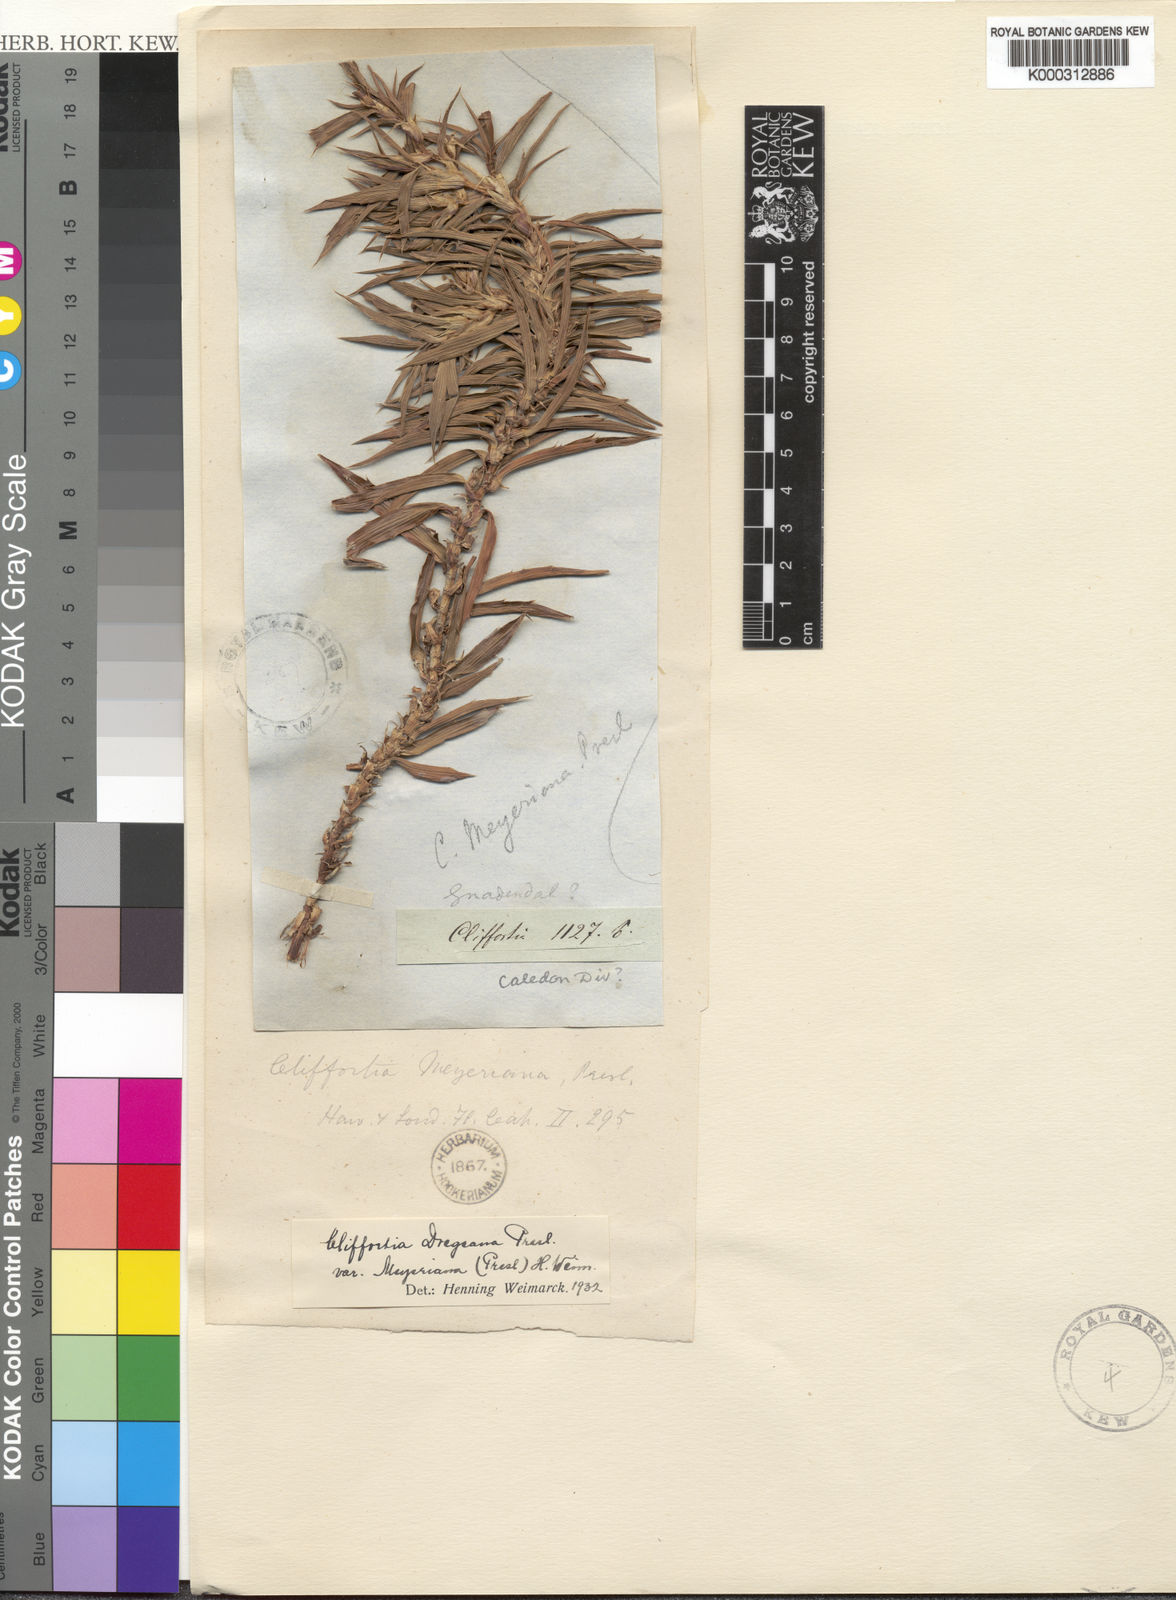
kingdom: Plantae
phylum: Tracheophyta
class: Magnoliopsida
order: Rosales
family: Rosaceae
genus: Cliffortia
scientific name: Cliffortia dregeana
